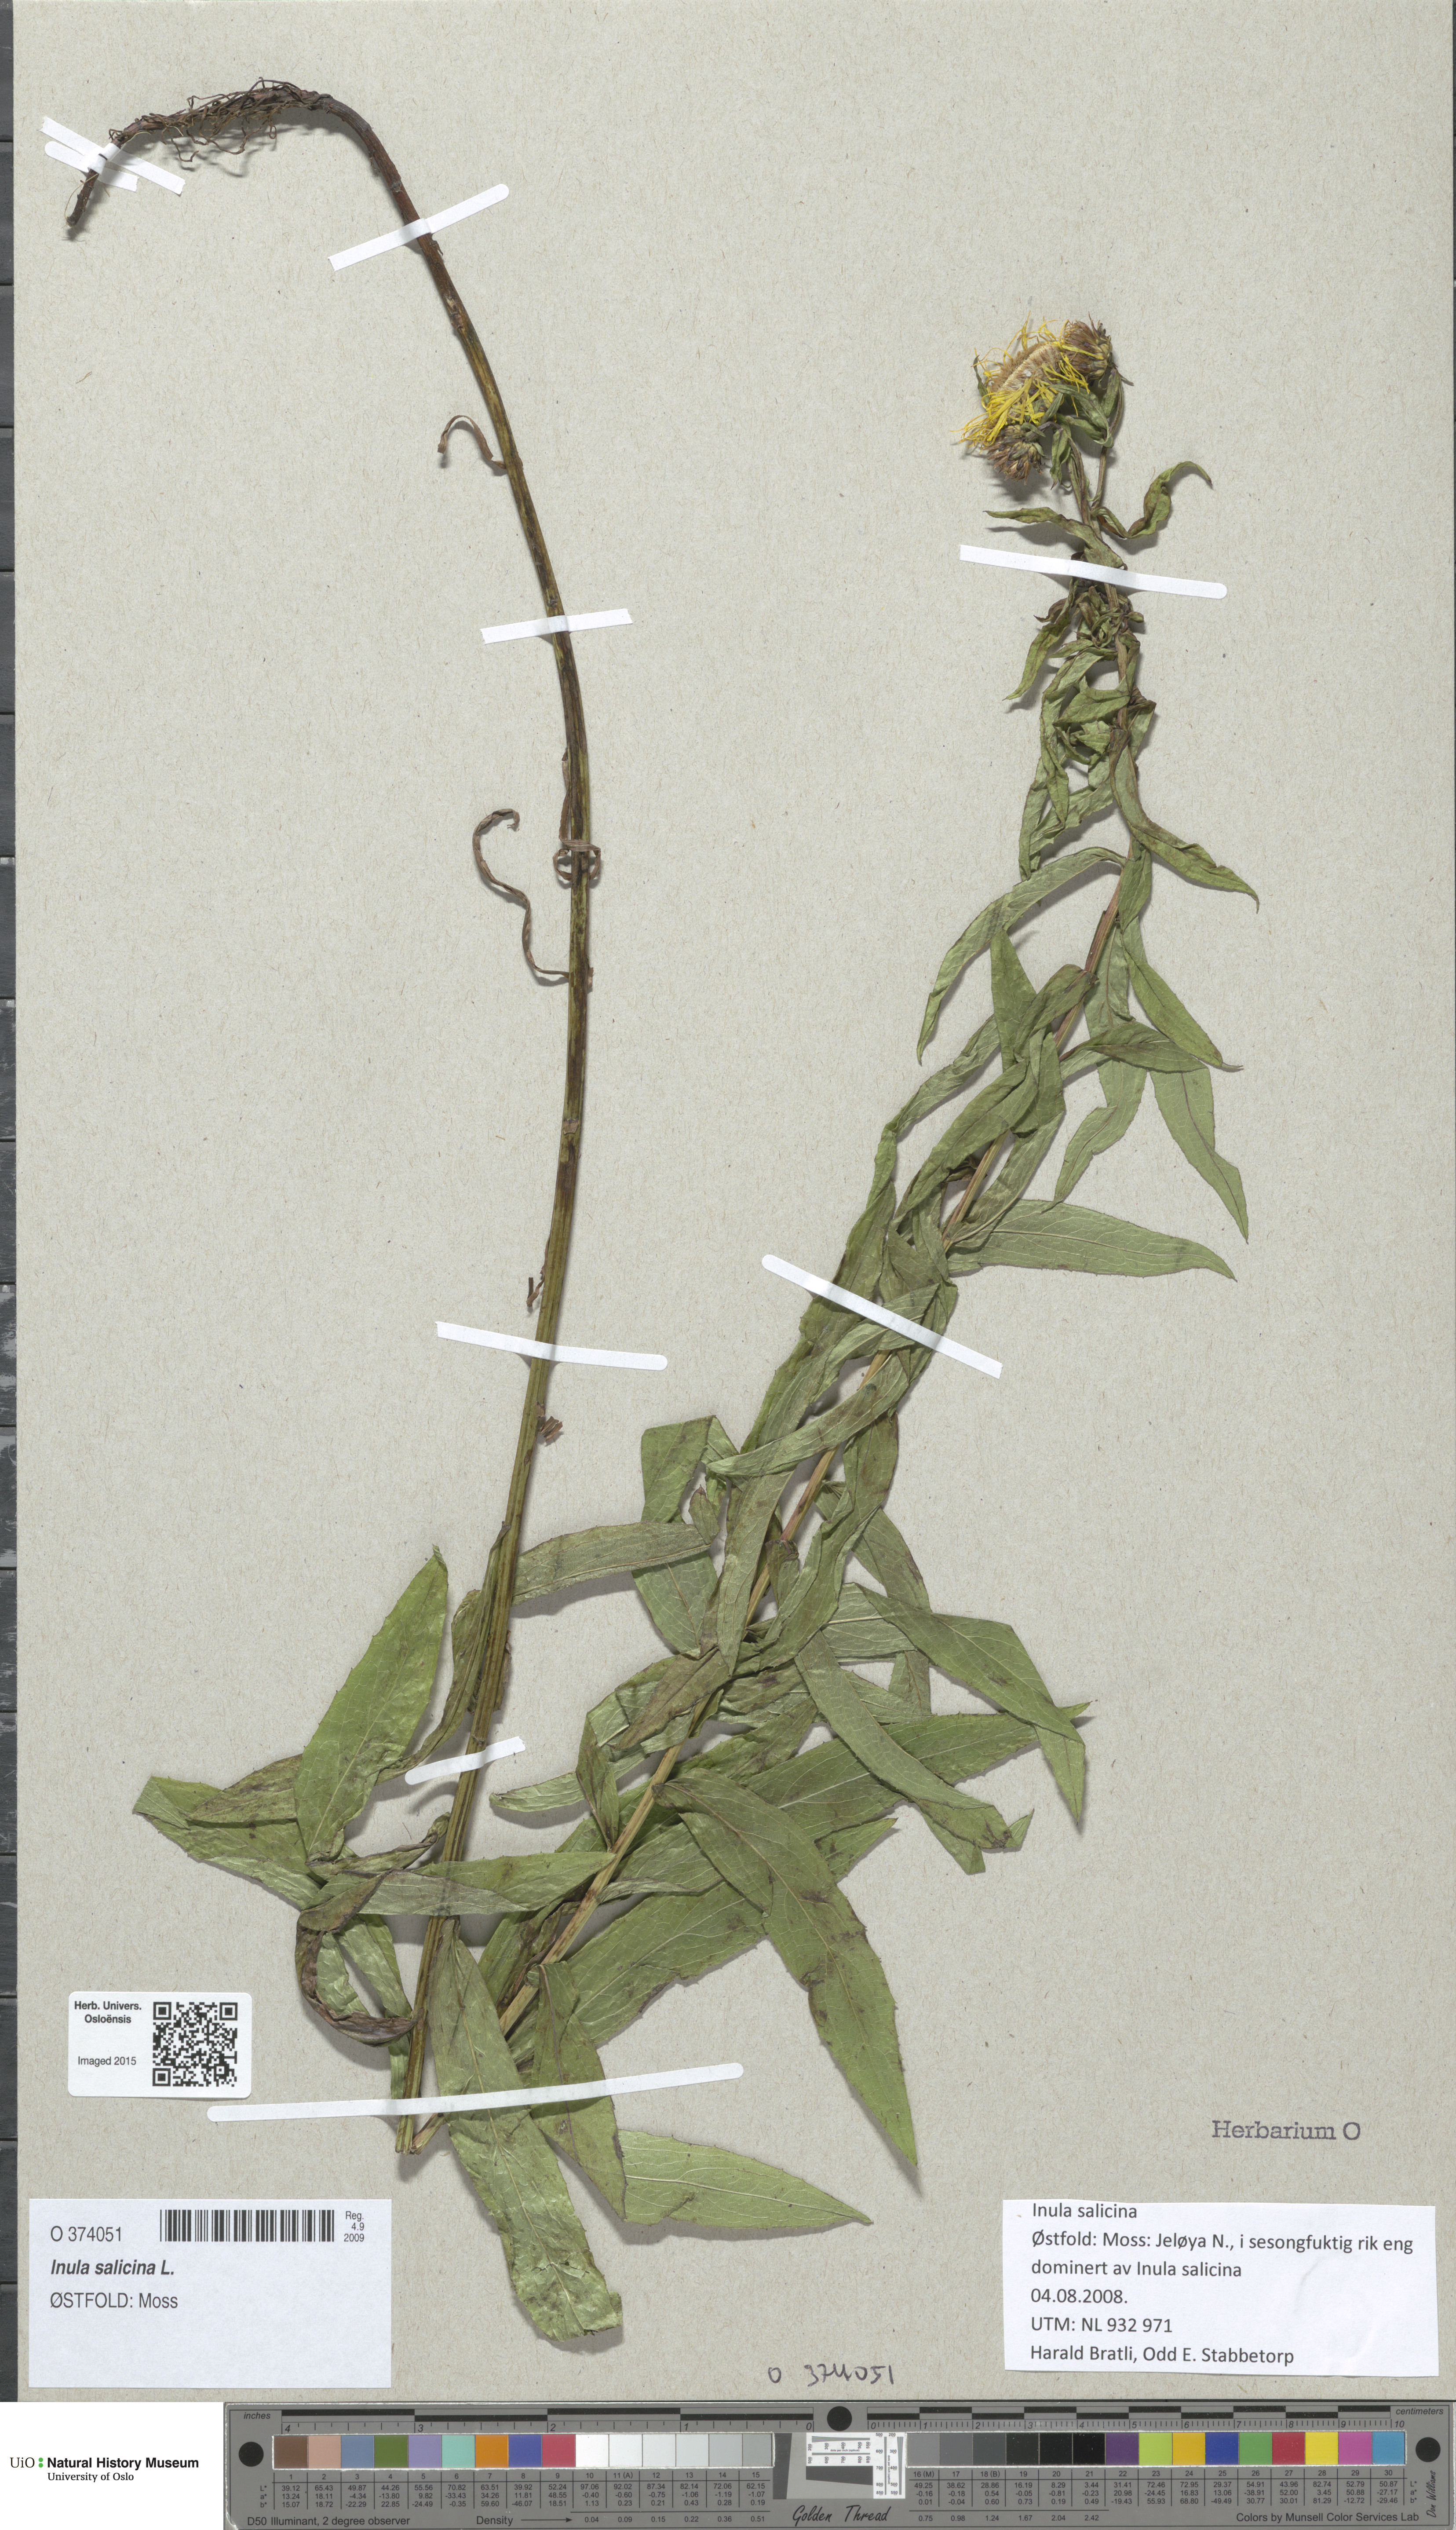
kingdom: Plantae
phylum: Tracheophyta
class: Magnoliopsida
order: Asterales
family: Asteraceae
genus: Pentanema
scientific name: Pentanema salicinum
